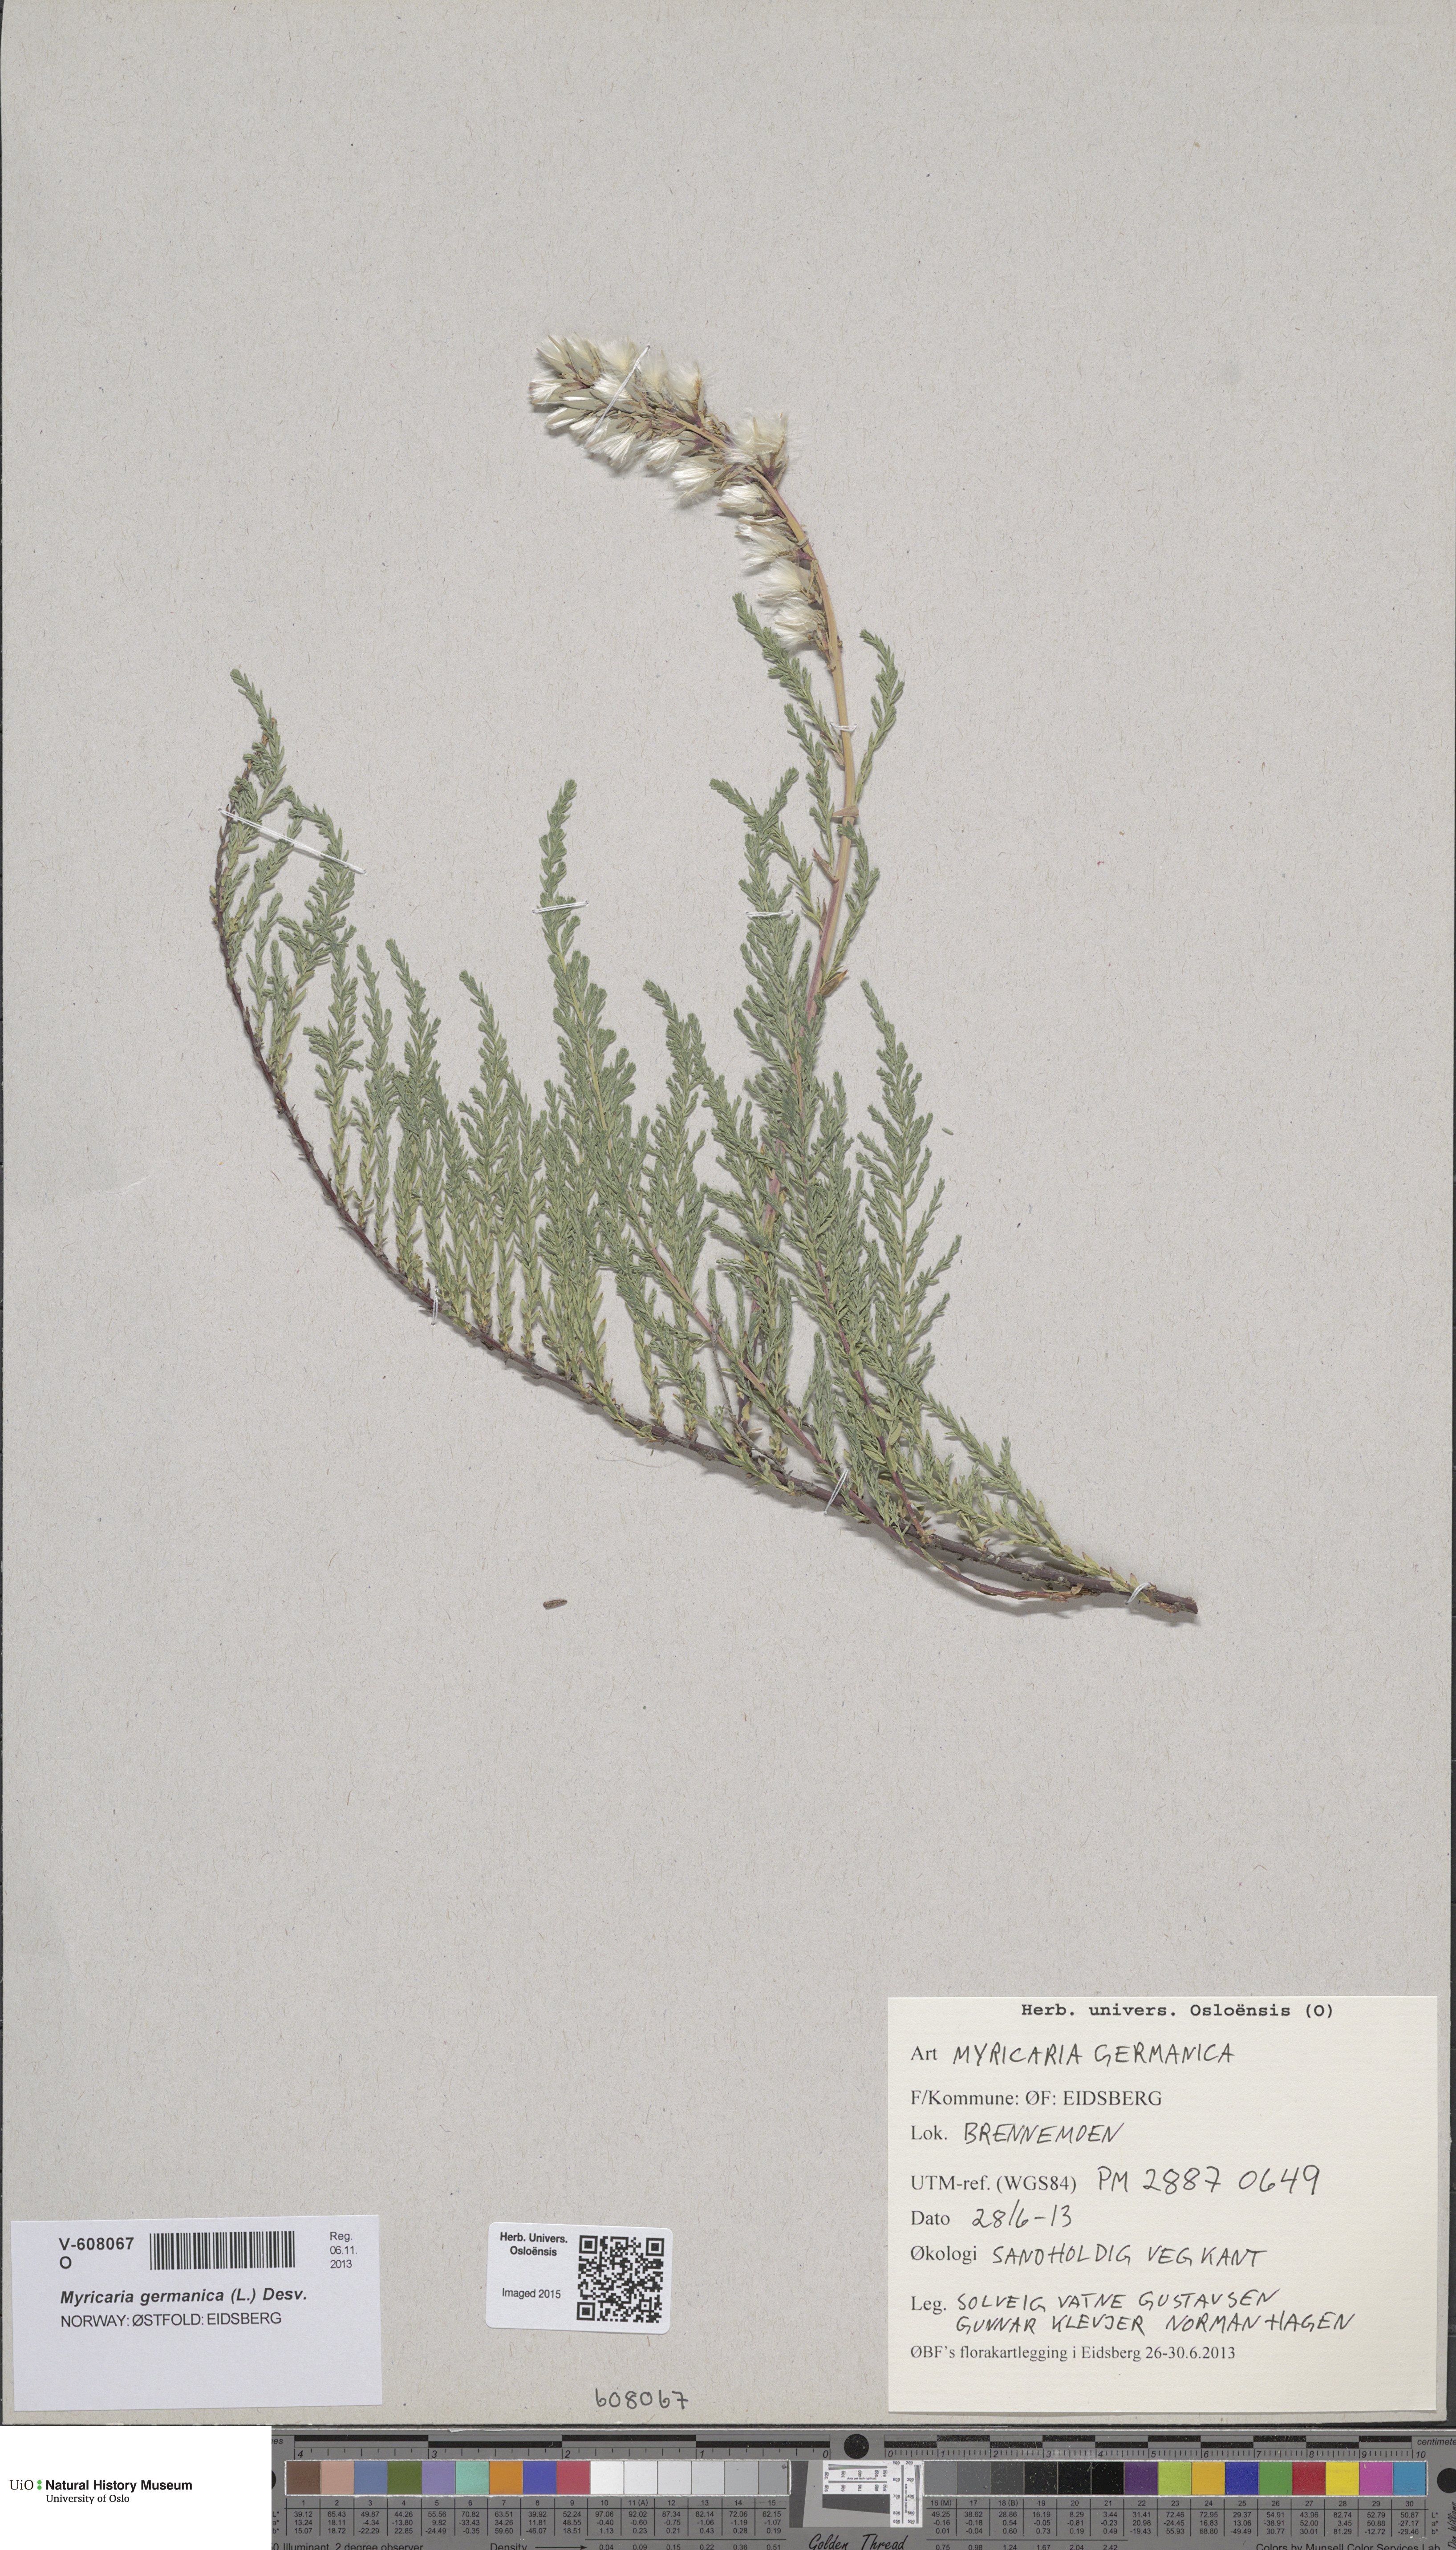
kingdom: Plantae
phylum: Tracheophyta
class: Magnoliopsida
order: Caryophyllales
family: Tamaricaceae
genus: Myricaria
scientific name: Myricaria germanica
